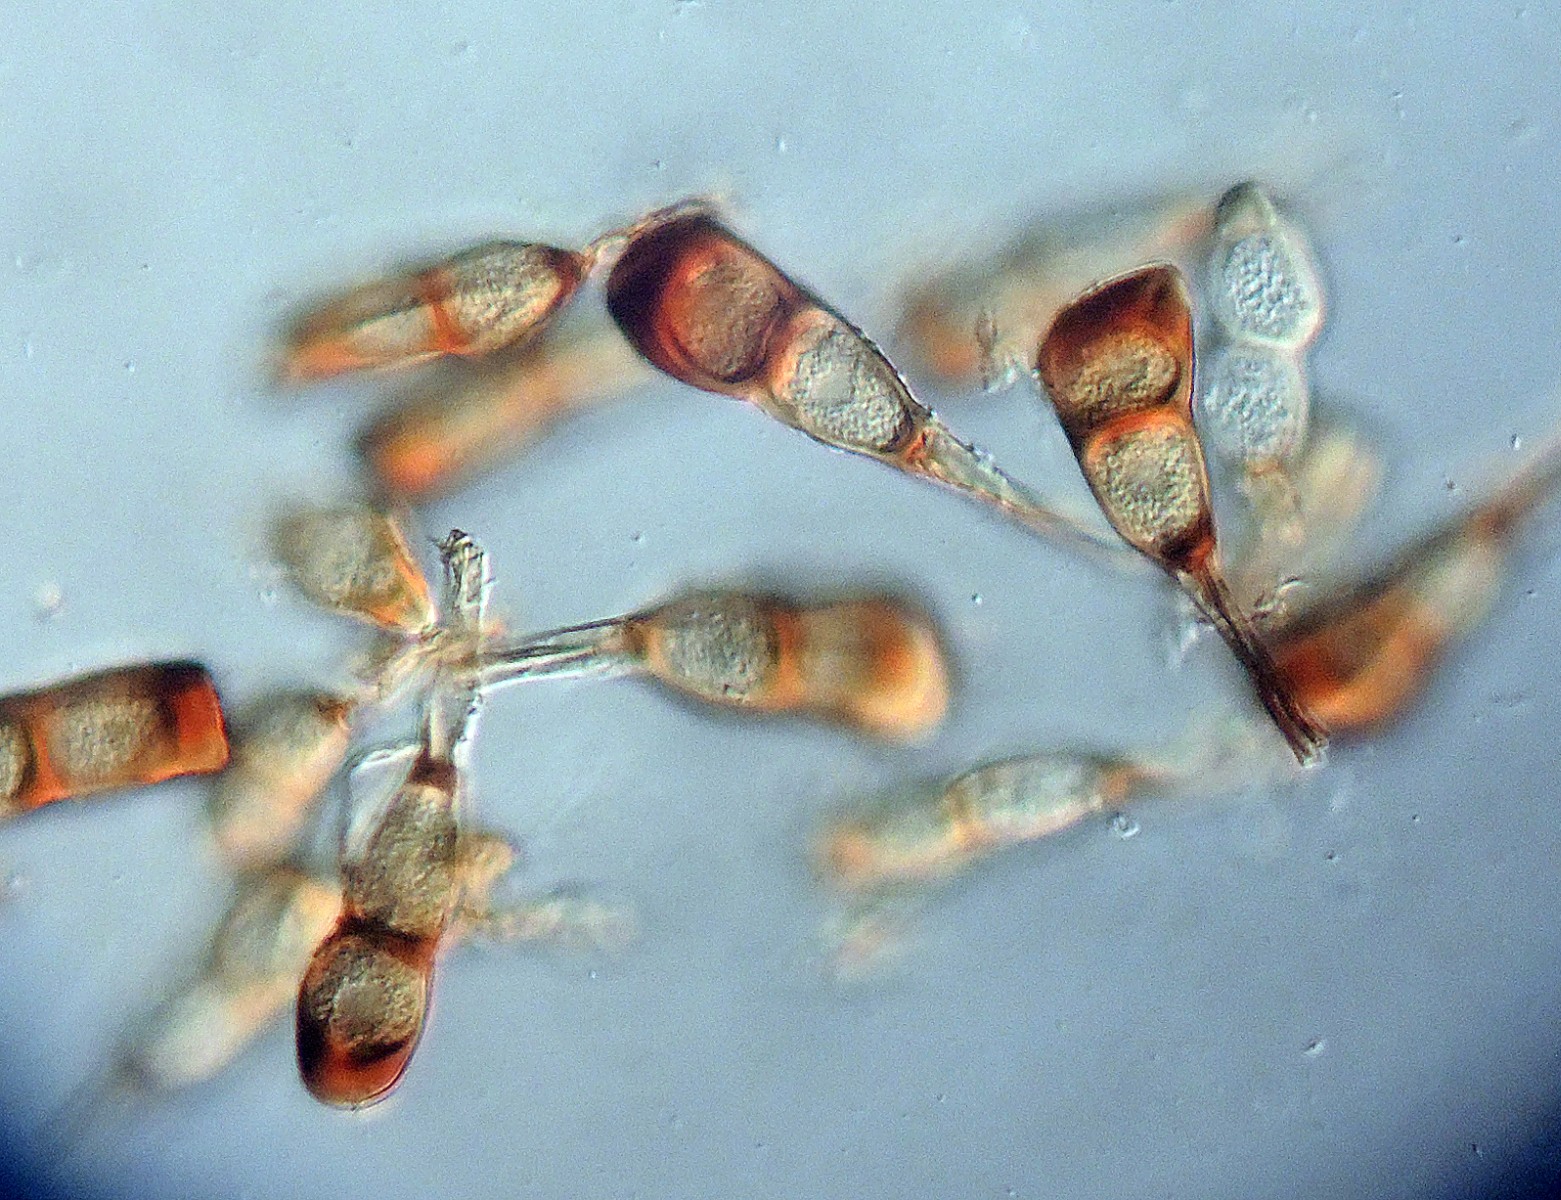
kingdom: Fungi
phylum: Basidiomycota
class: Pucciniomycetes
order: Pucciniales
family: Pucciniaceae
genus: Puccinia
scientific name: Puccinia difformis
